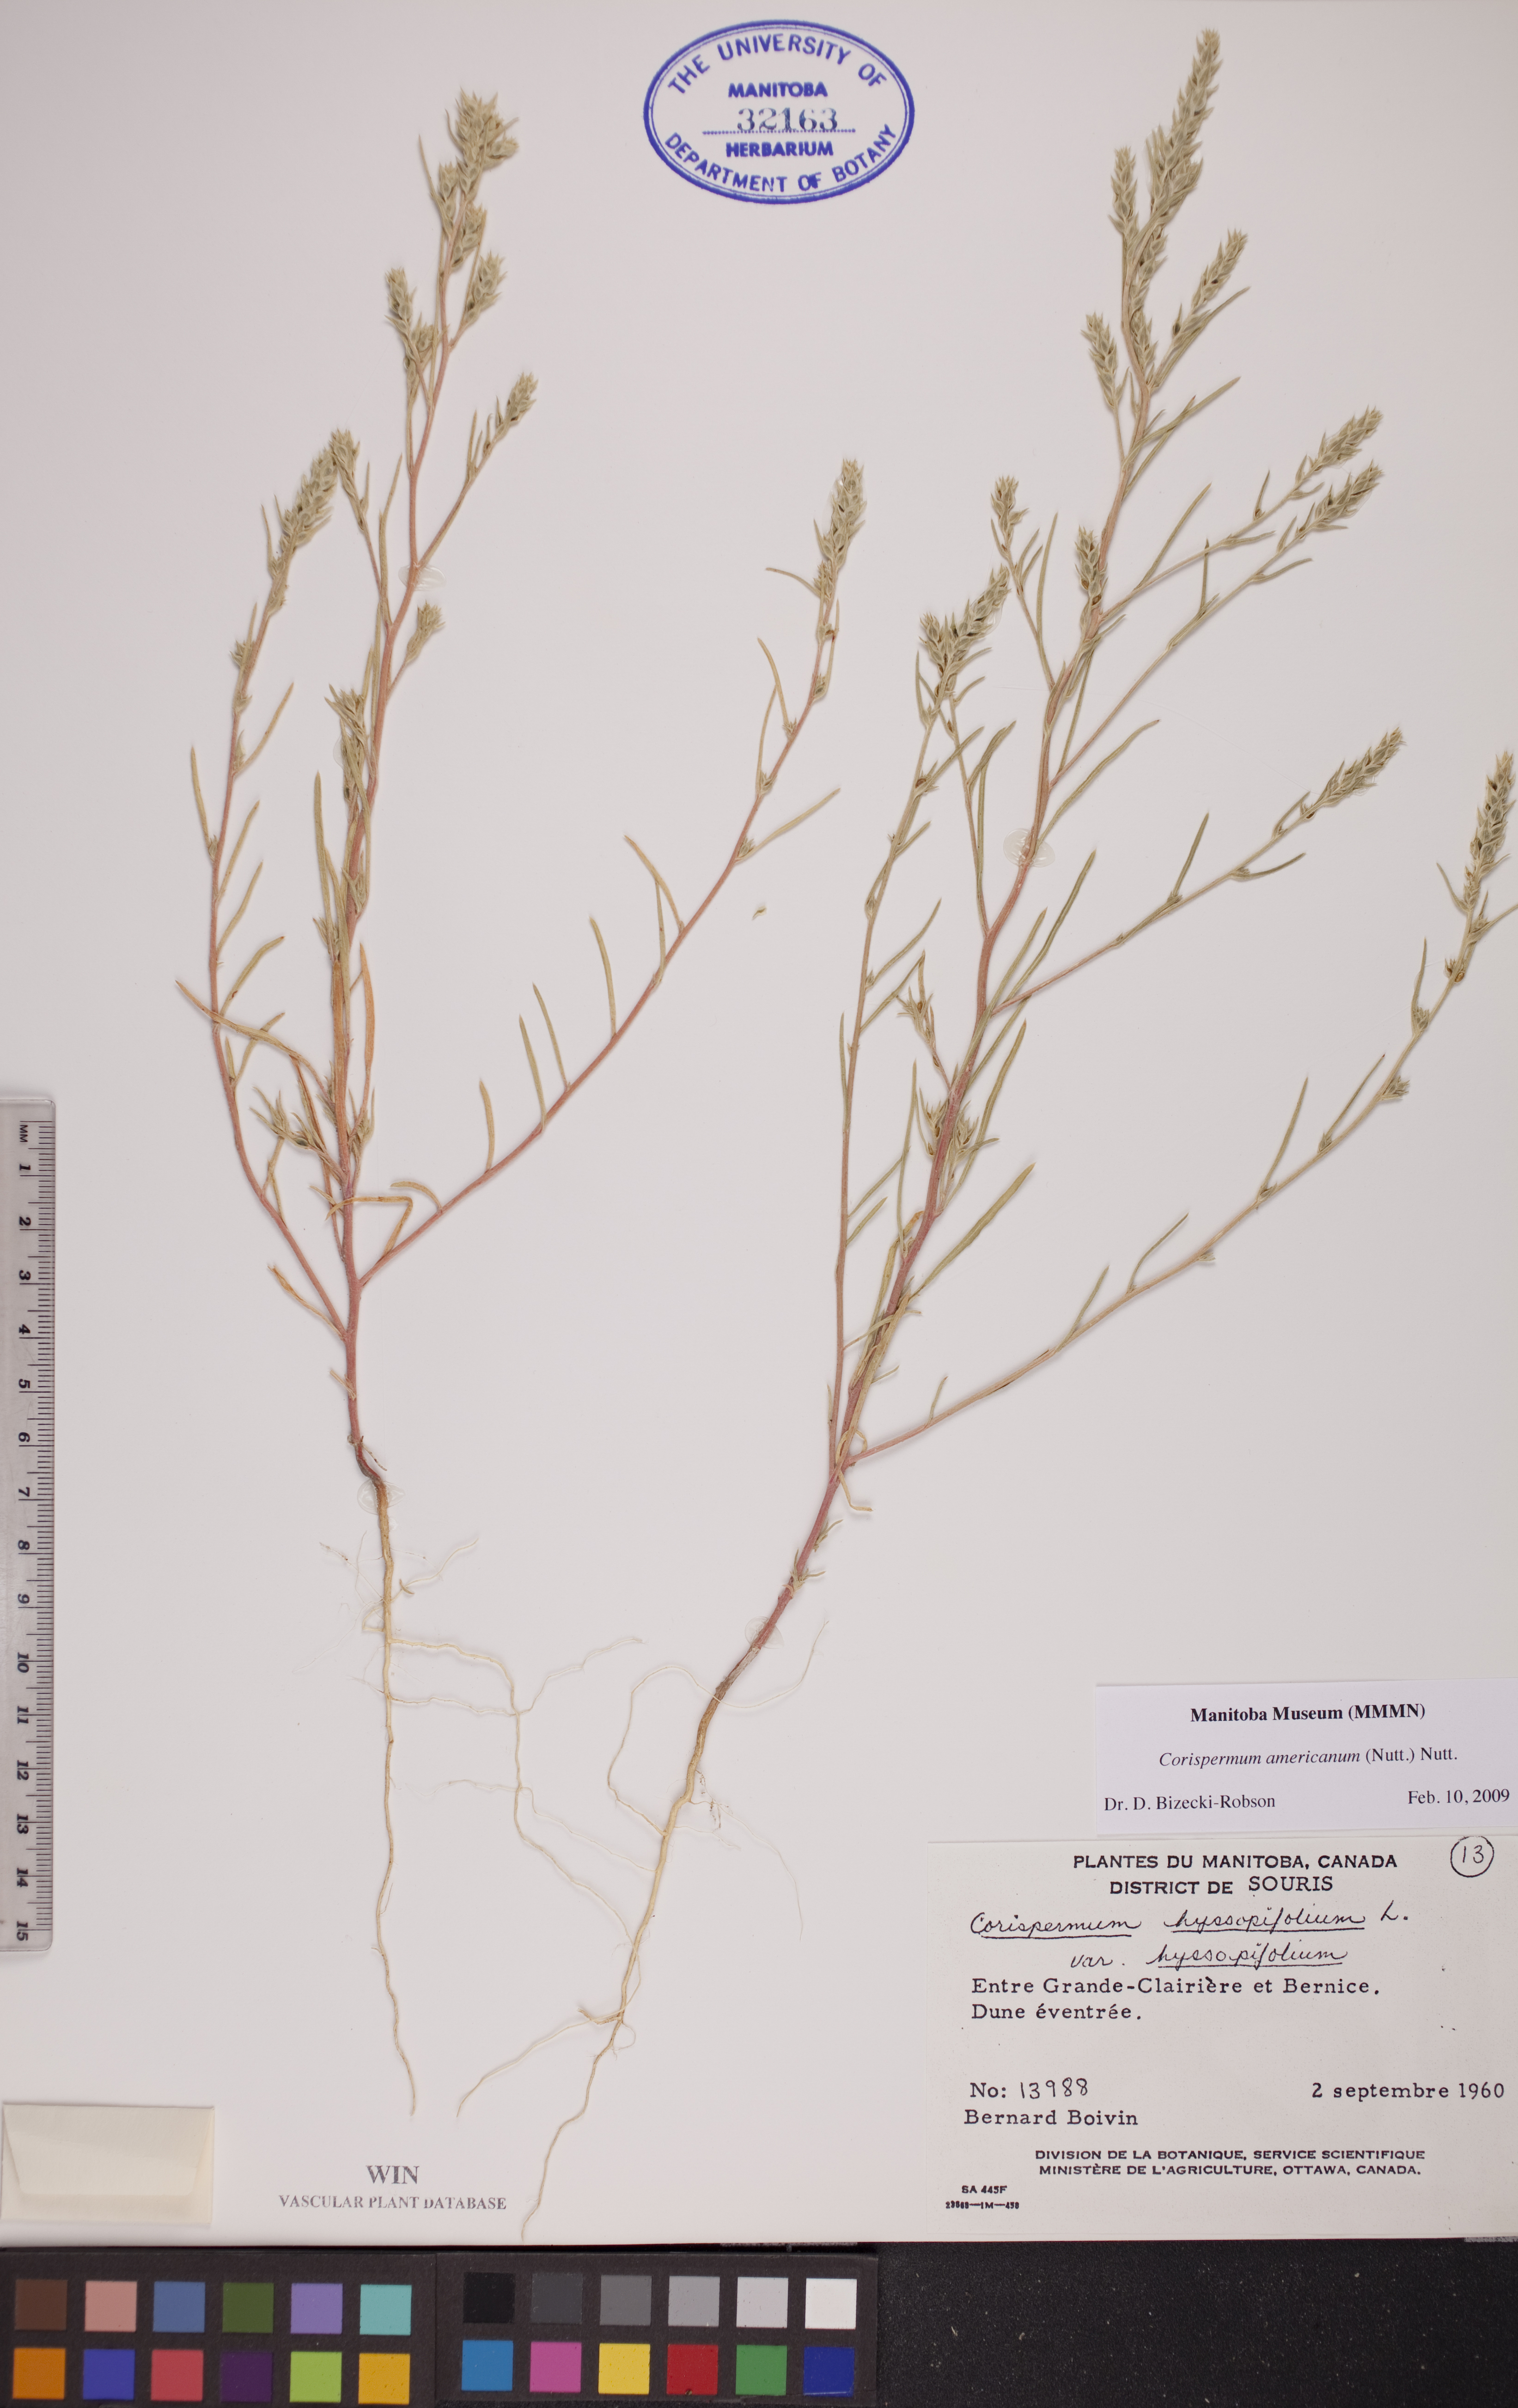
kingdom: Plantae
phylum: Tracheophyta
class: Magnoliopsida
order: Caryophyllales
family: Amaranthaceae
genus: Corispermum
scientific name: Corispermum americanum
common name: American bugseed
